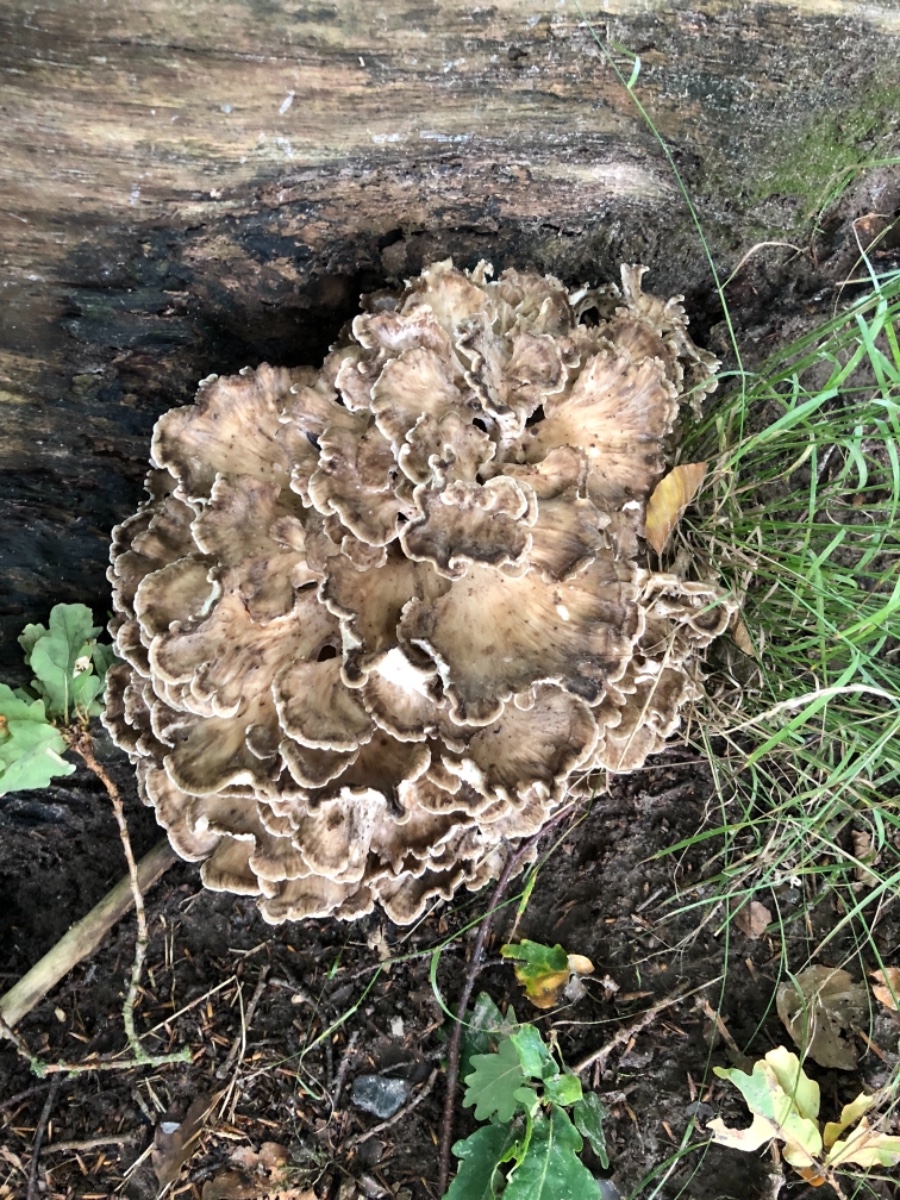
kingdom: Fungi
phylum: Basidiomycota
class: Agaricomycetes
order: Polyporales
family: Grifolaceae
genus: Grifola
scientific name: Grifola frondosa
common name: tueporesvamp
